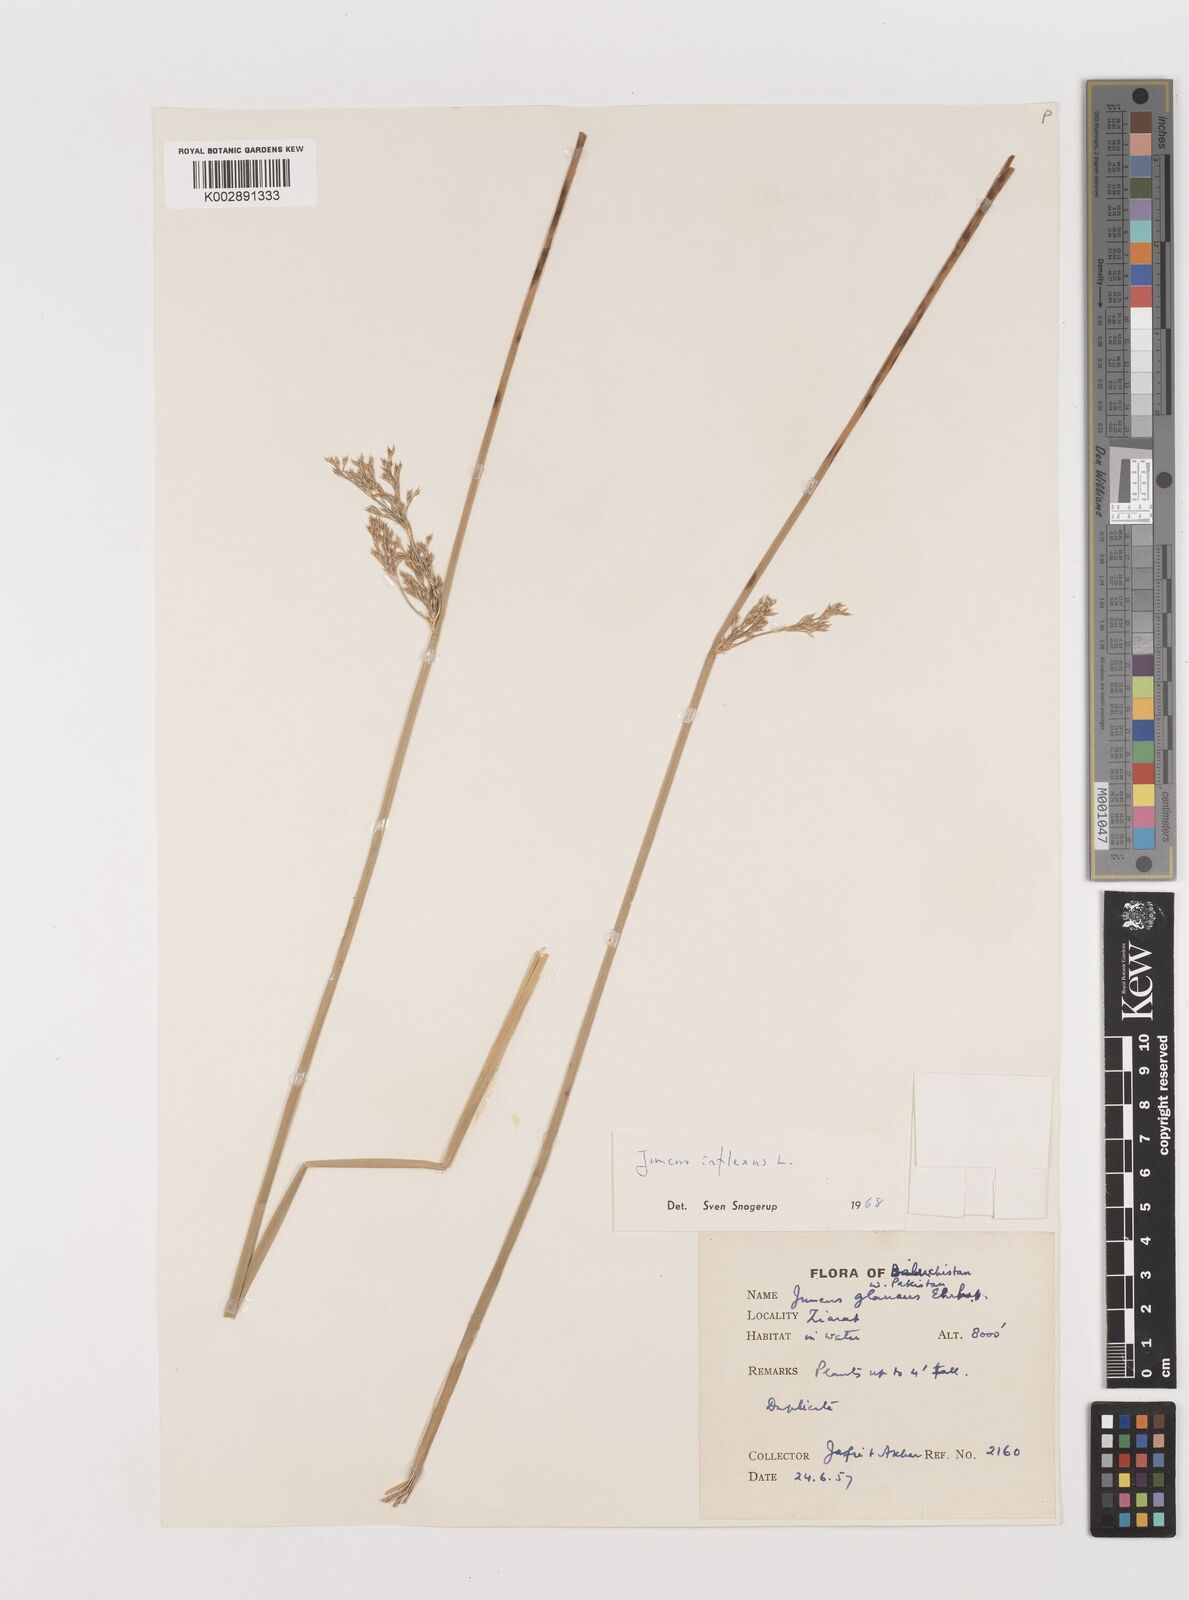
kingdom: Plantae
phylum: Tracheophyta
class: Liliopsida
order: Poales
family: Juncaceae
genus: Juncus
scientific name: Juncus inflexus
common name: Hard rush
